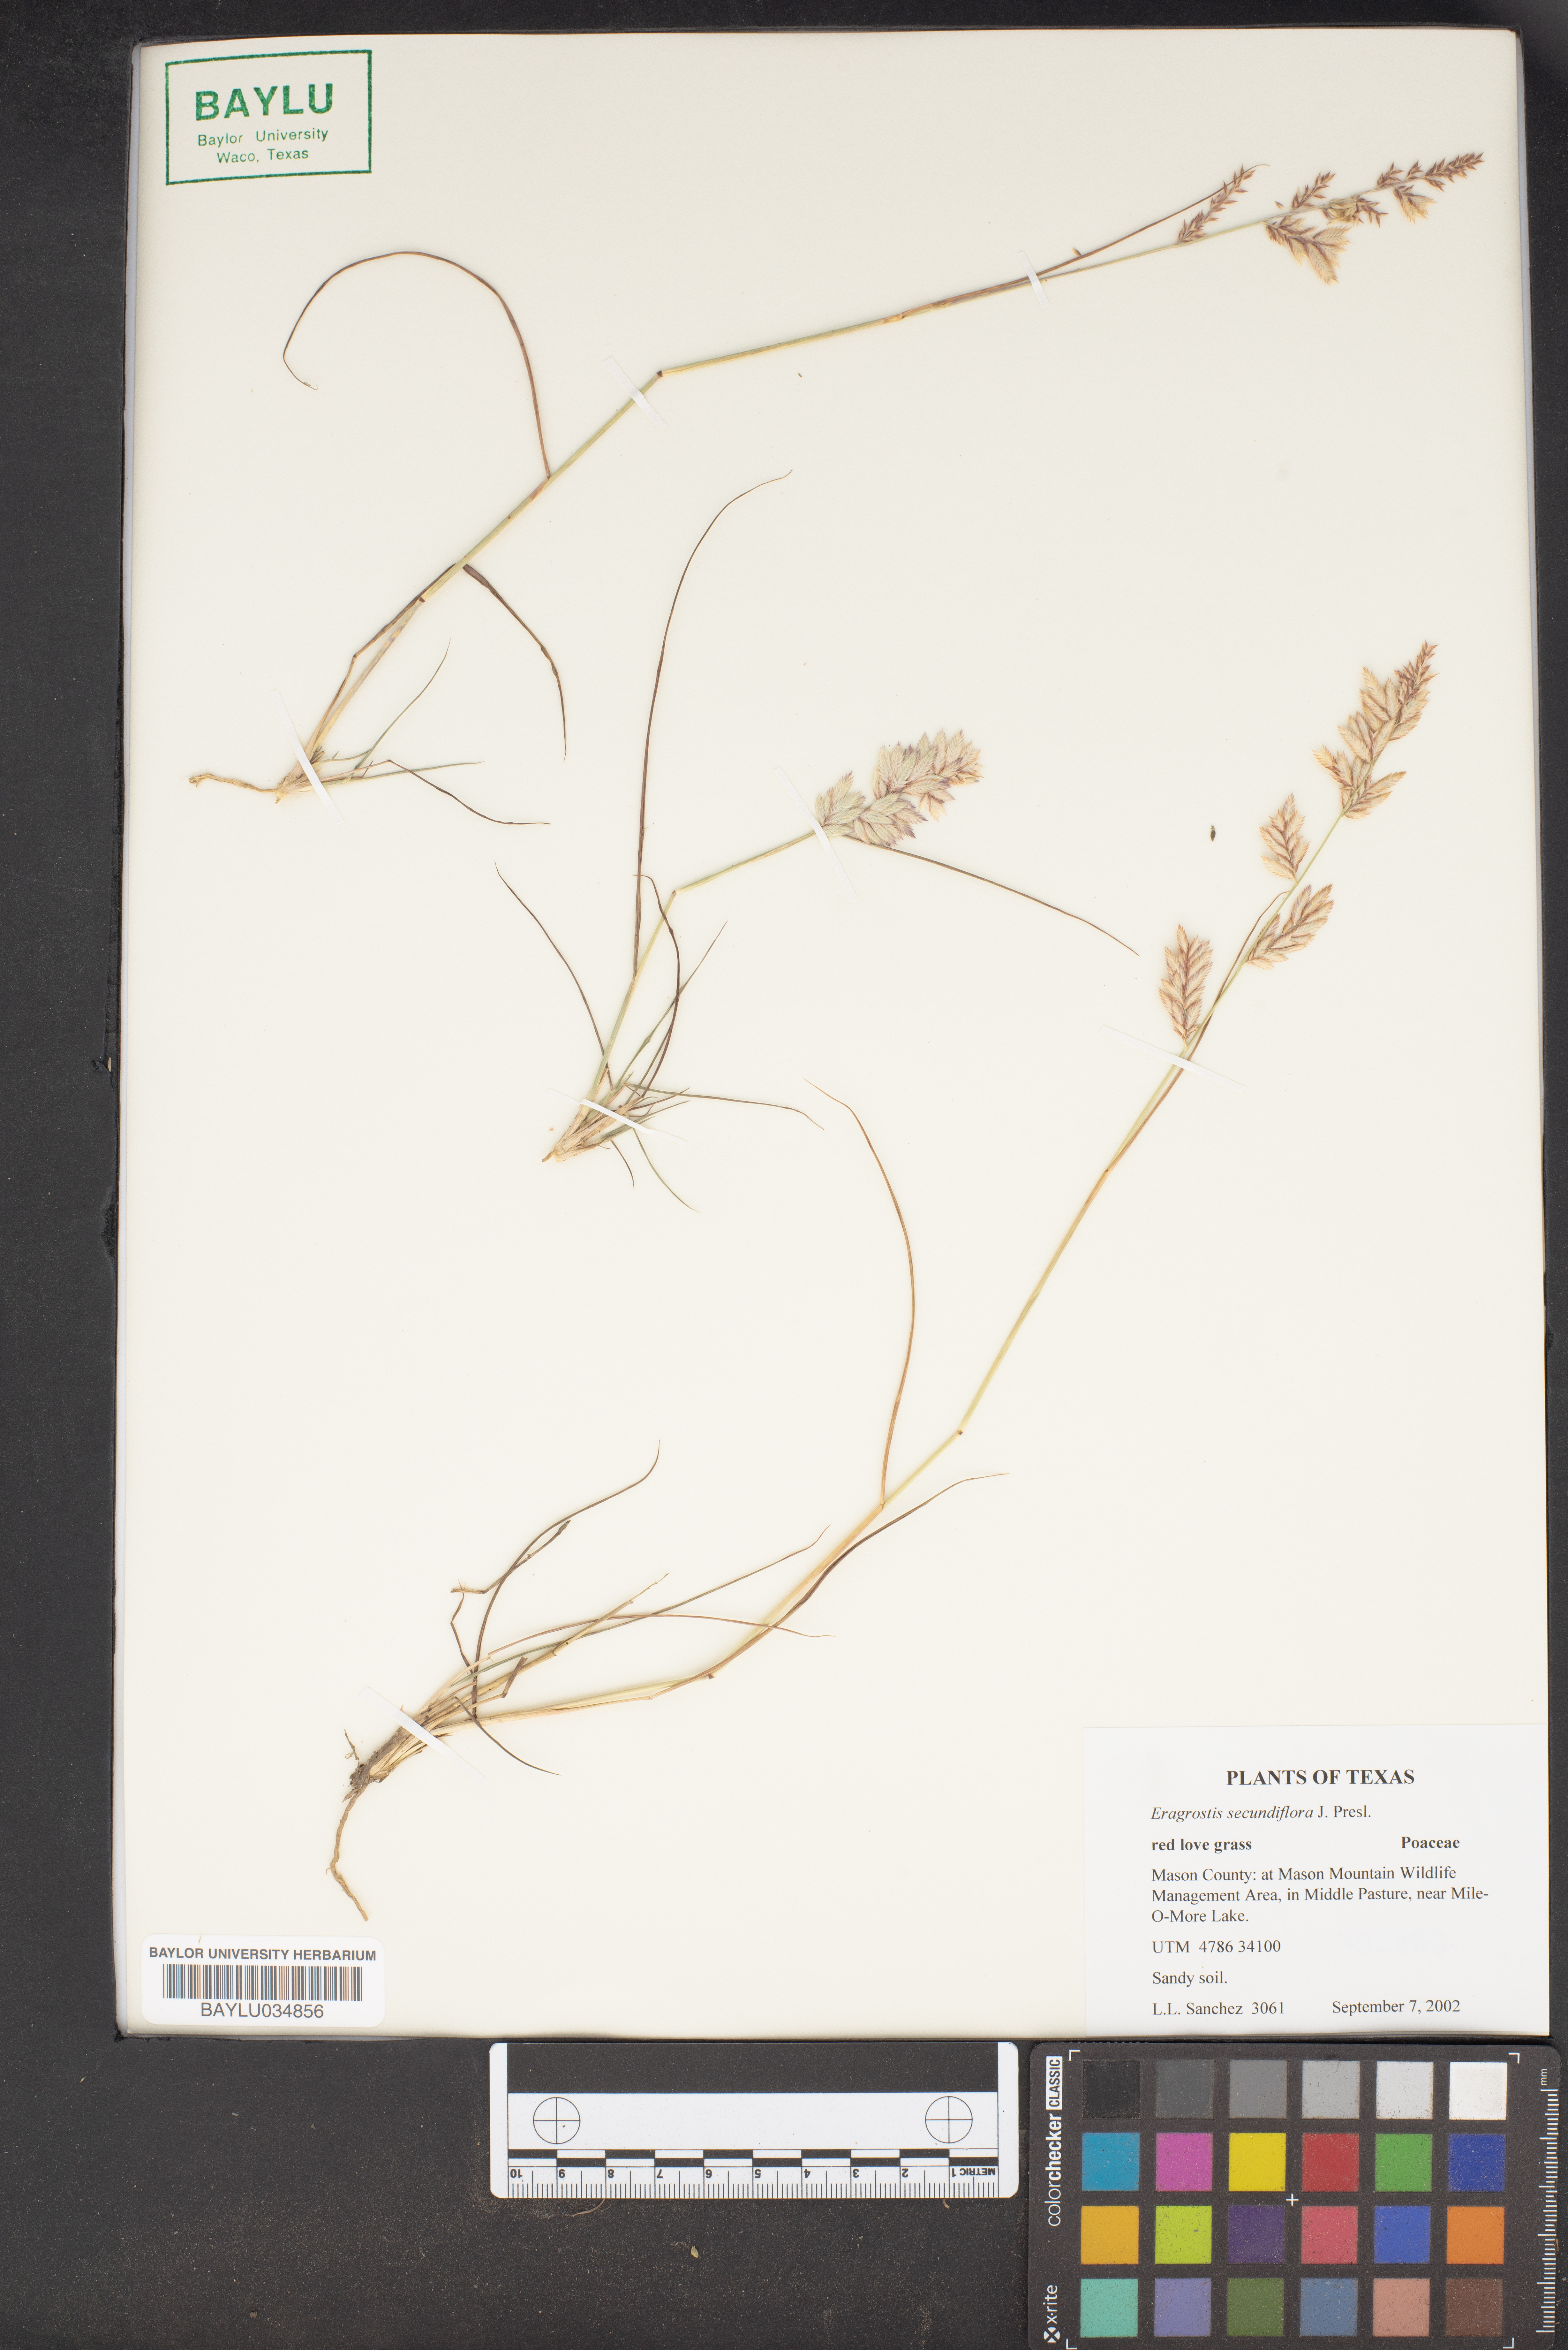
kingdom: Plantae
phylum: Tracheophyta
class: Liliopsida
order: Poales
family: Poaceae
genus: Eragrostis
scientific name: Eragrostis secundiflora
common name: Red love grass
